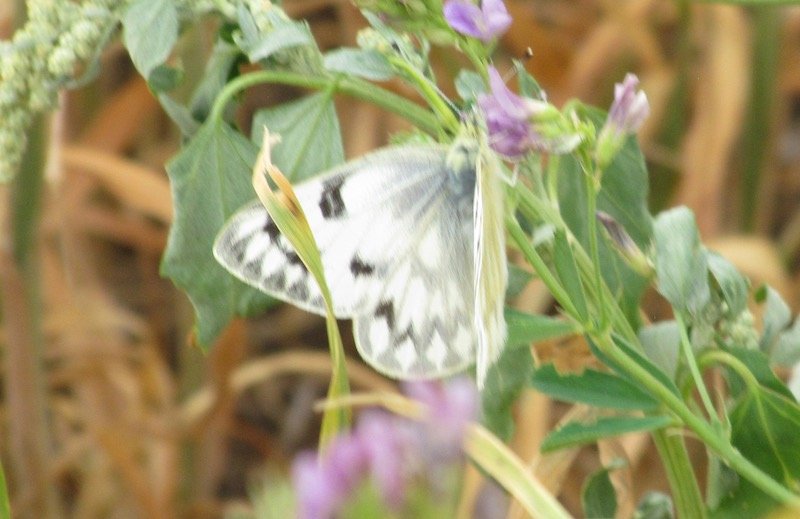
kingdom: Animalia
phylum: Arthropoda
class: Insecta
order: Lepidoptera
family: Pieridae
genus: Pontia
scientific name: Pontia occidentalis
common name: Western White
